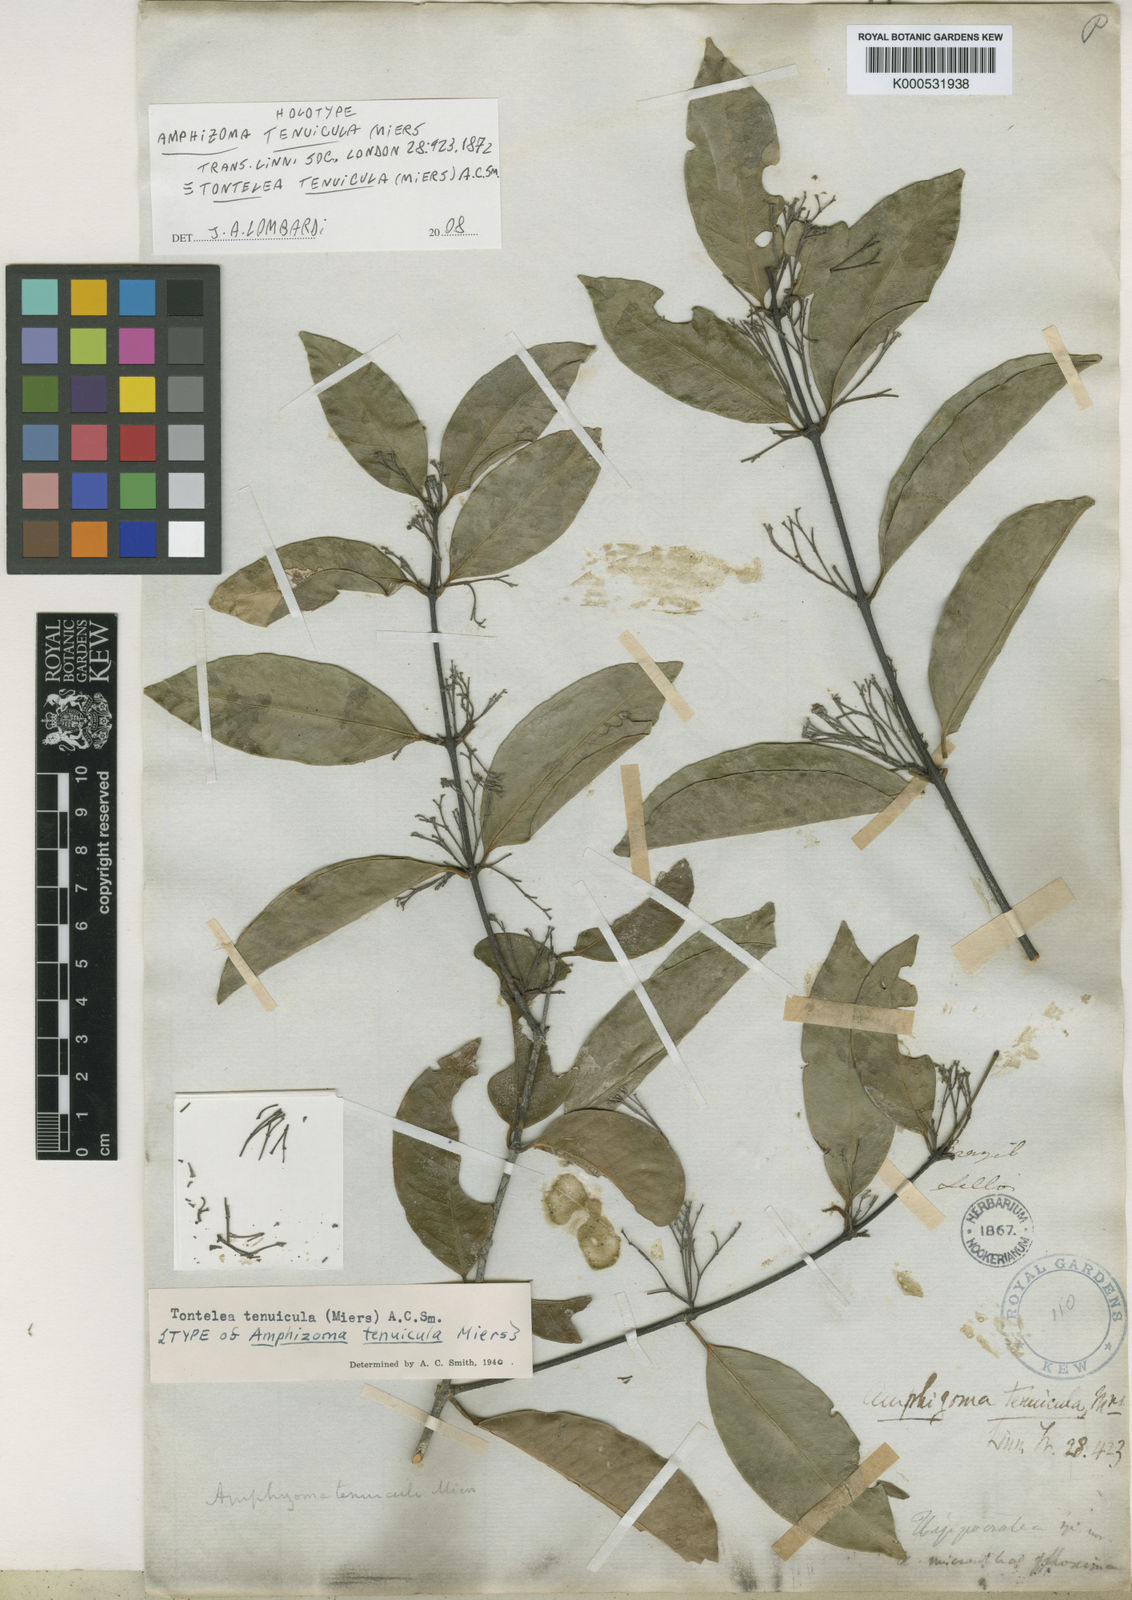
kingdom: Plantae
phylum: Tracheophyta
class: Magnoliopsida
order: Celastrales
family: Celastraceae
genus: Tontelea
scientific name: Tontelea tenuicula
